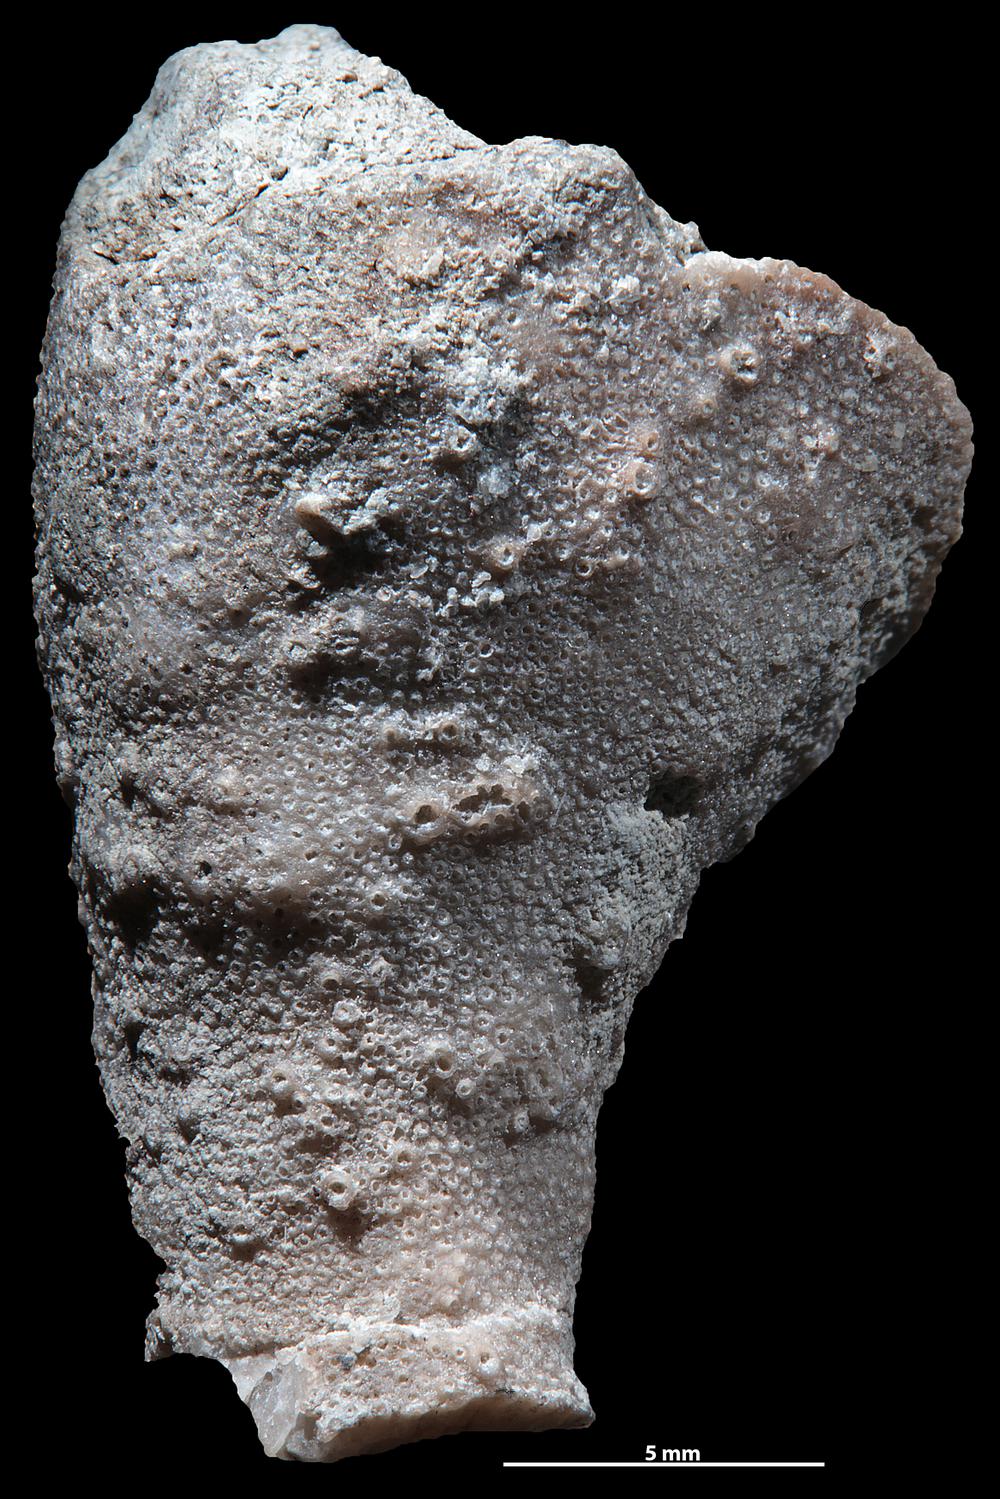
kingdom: Animalia
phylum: Bryozoa
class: Stenolaemata
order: Cystoporida
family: Fistuliporidae
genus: Fistulipora
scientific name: Fistulipora przhidolensis
